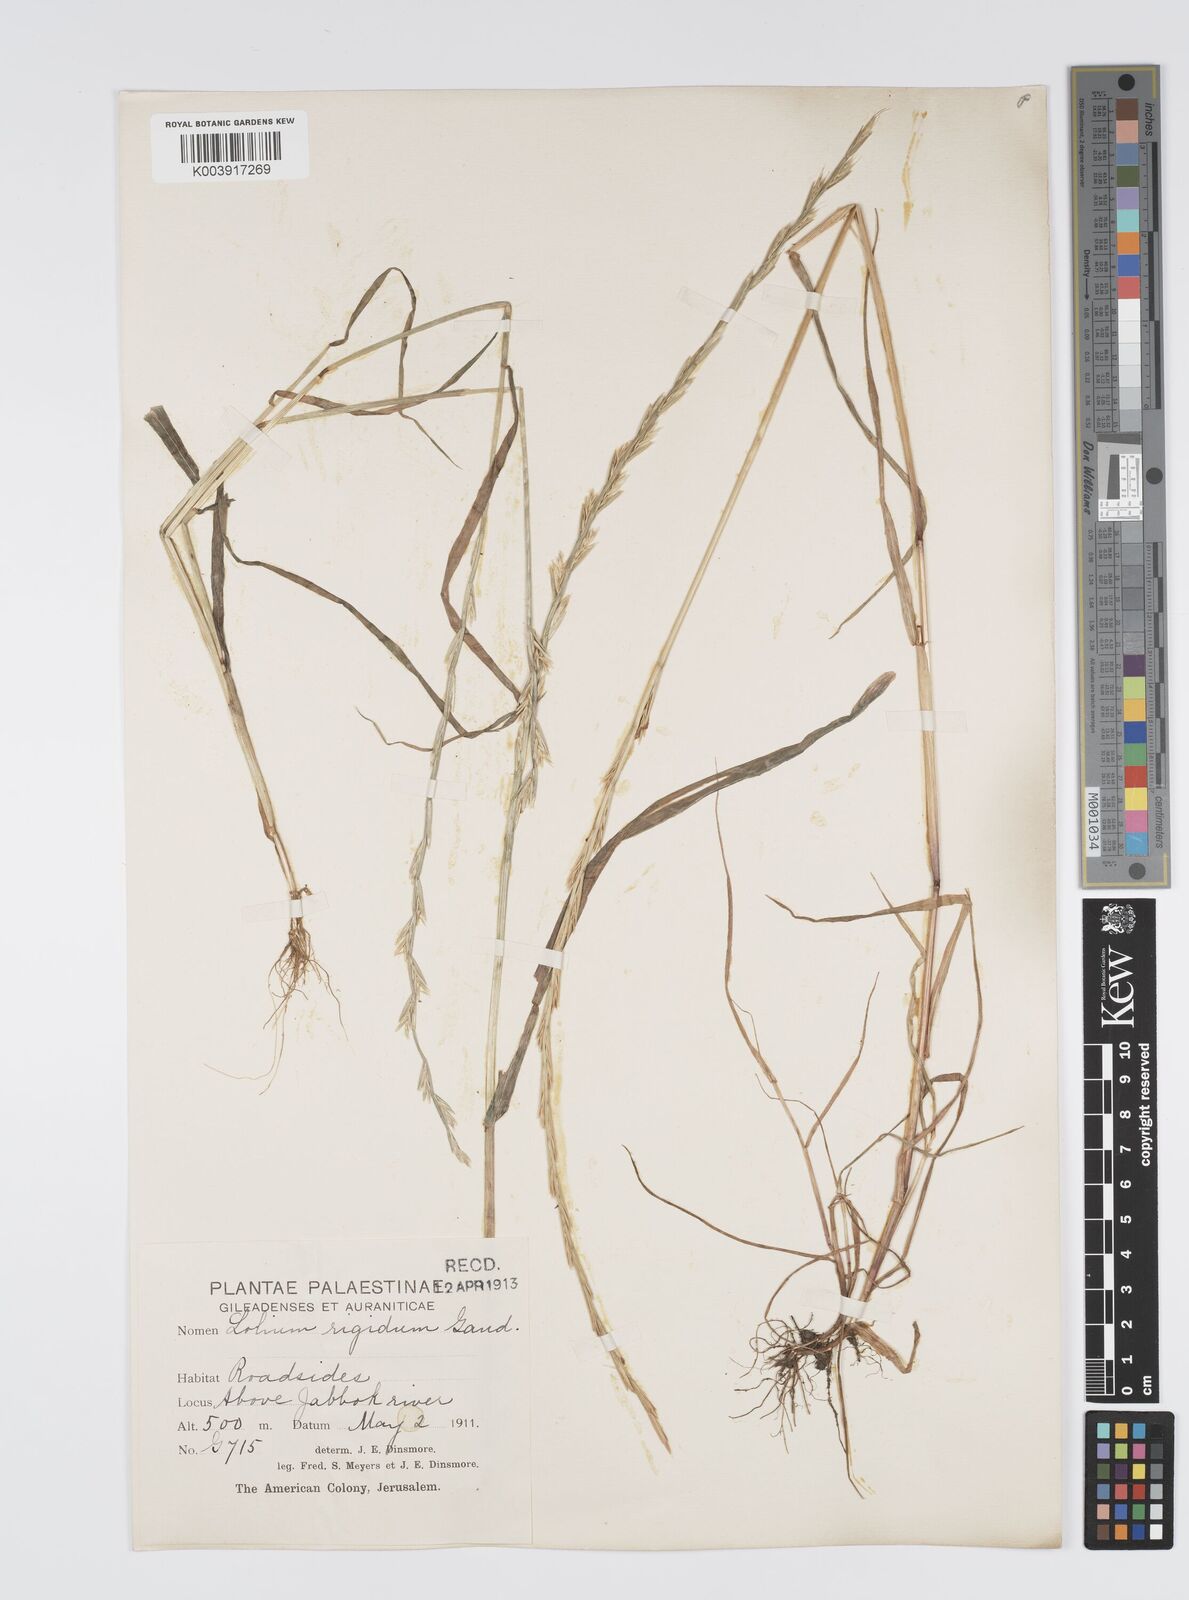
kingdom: Plantae
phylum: Tracheophyta
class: Liliopsida
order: Poales
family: Poaceae
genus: Lolium
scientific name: Lolium rigidum
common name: Wimmera ryegrass
